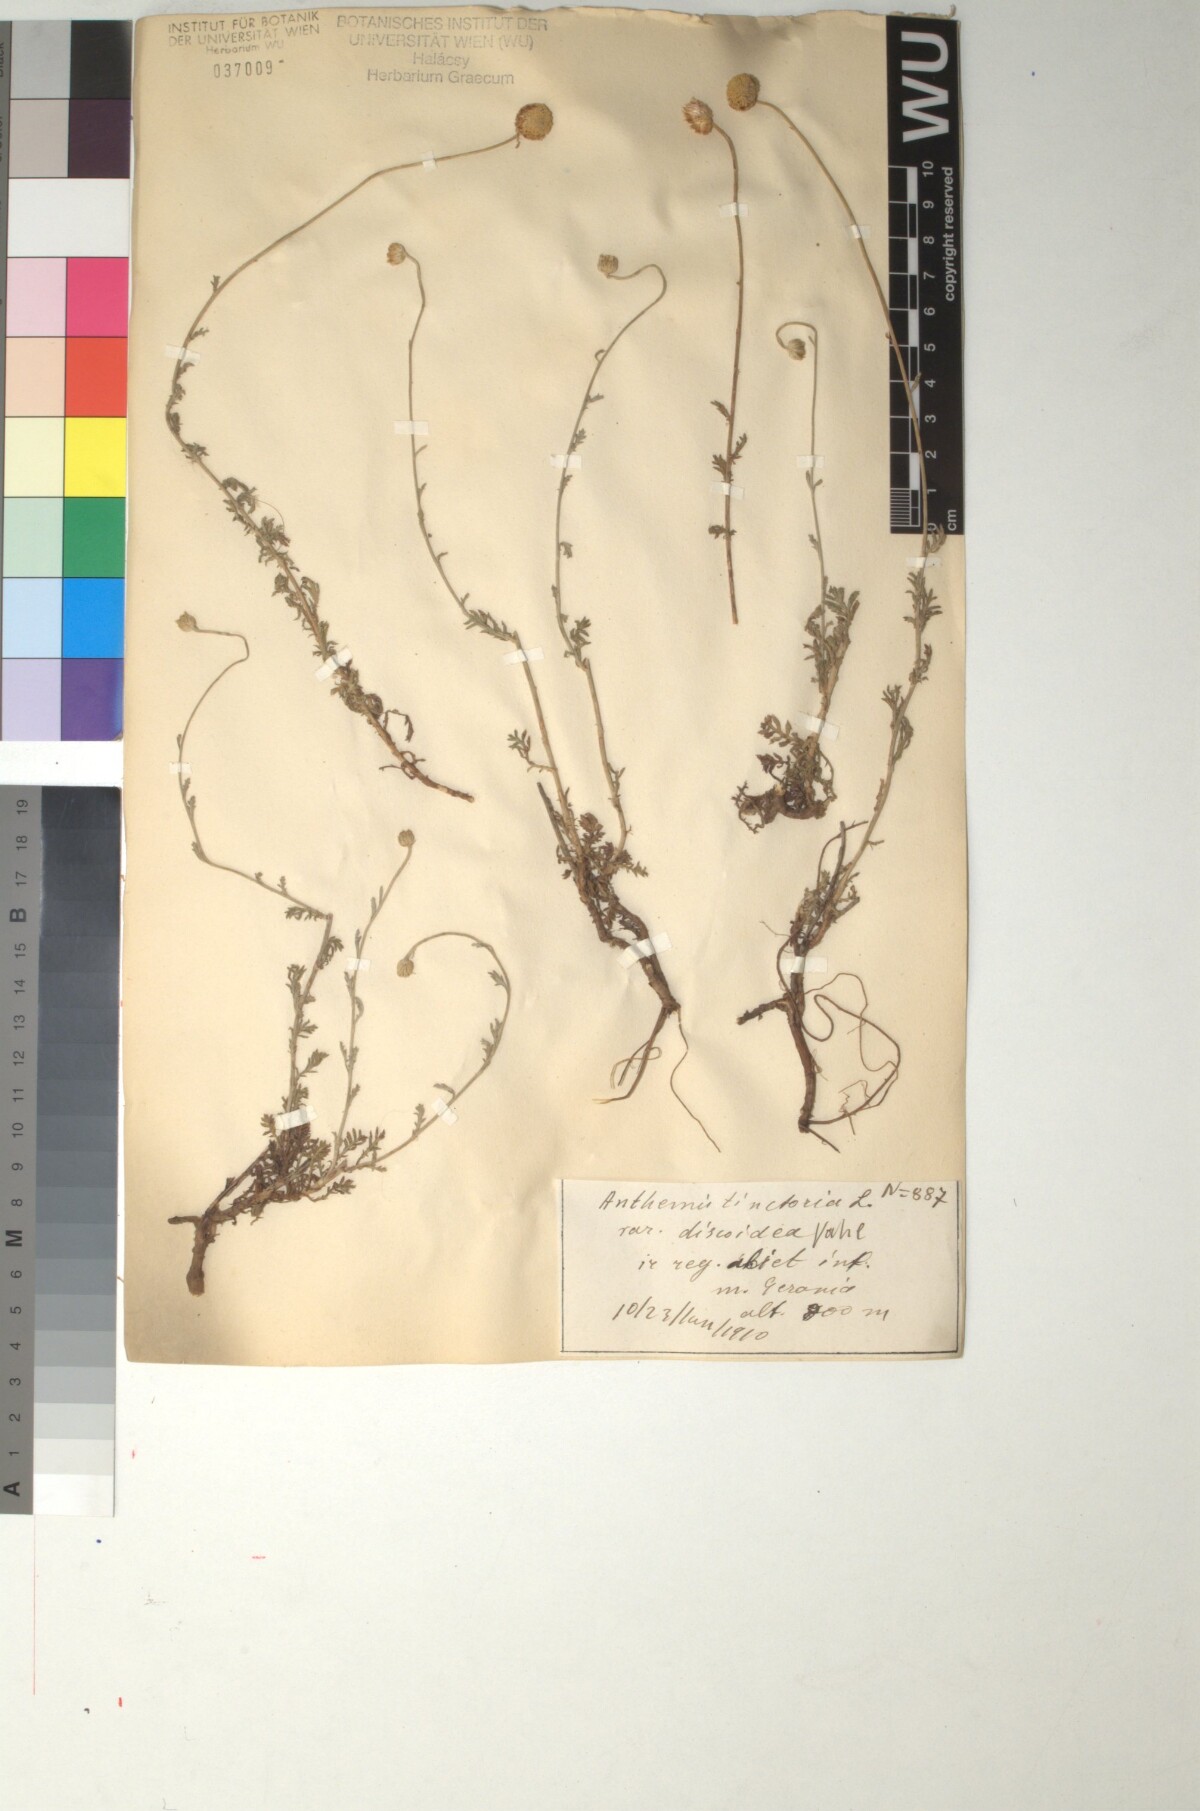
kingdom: Plantae
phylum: Tracheophyta
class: Magnoliopsida
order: Asterales
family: Asteraceae
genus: Cota
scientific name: Cota tinctoria
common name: Golden chamomile
